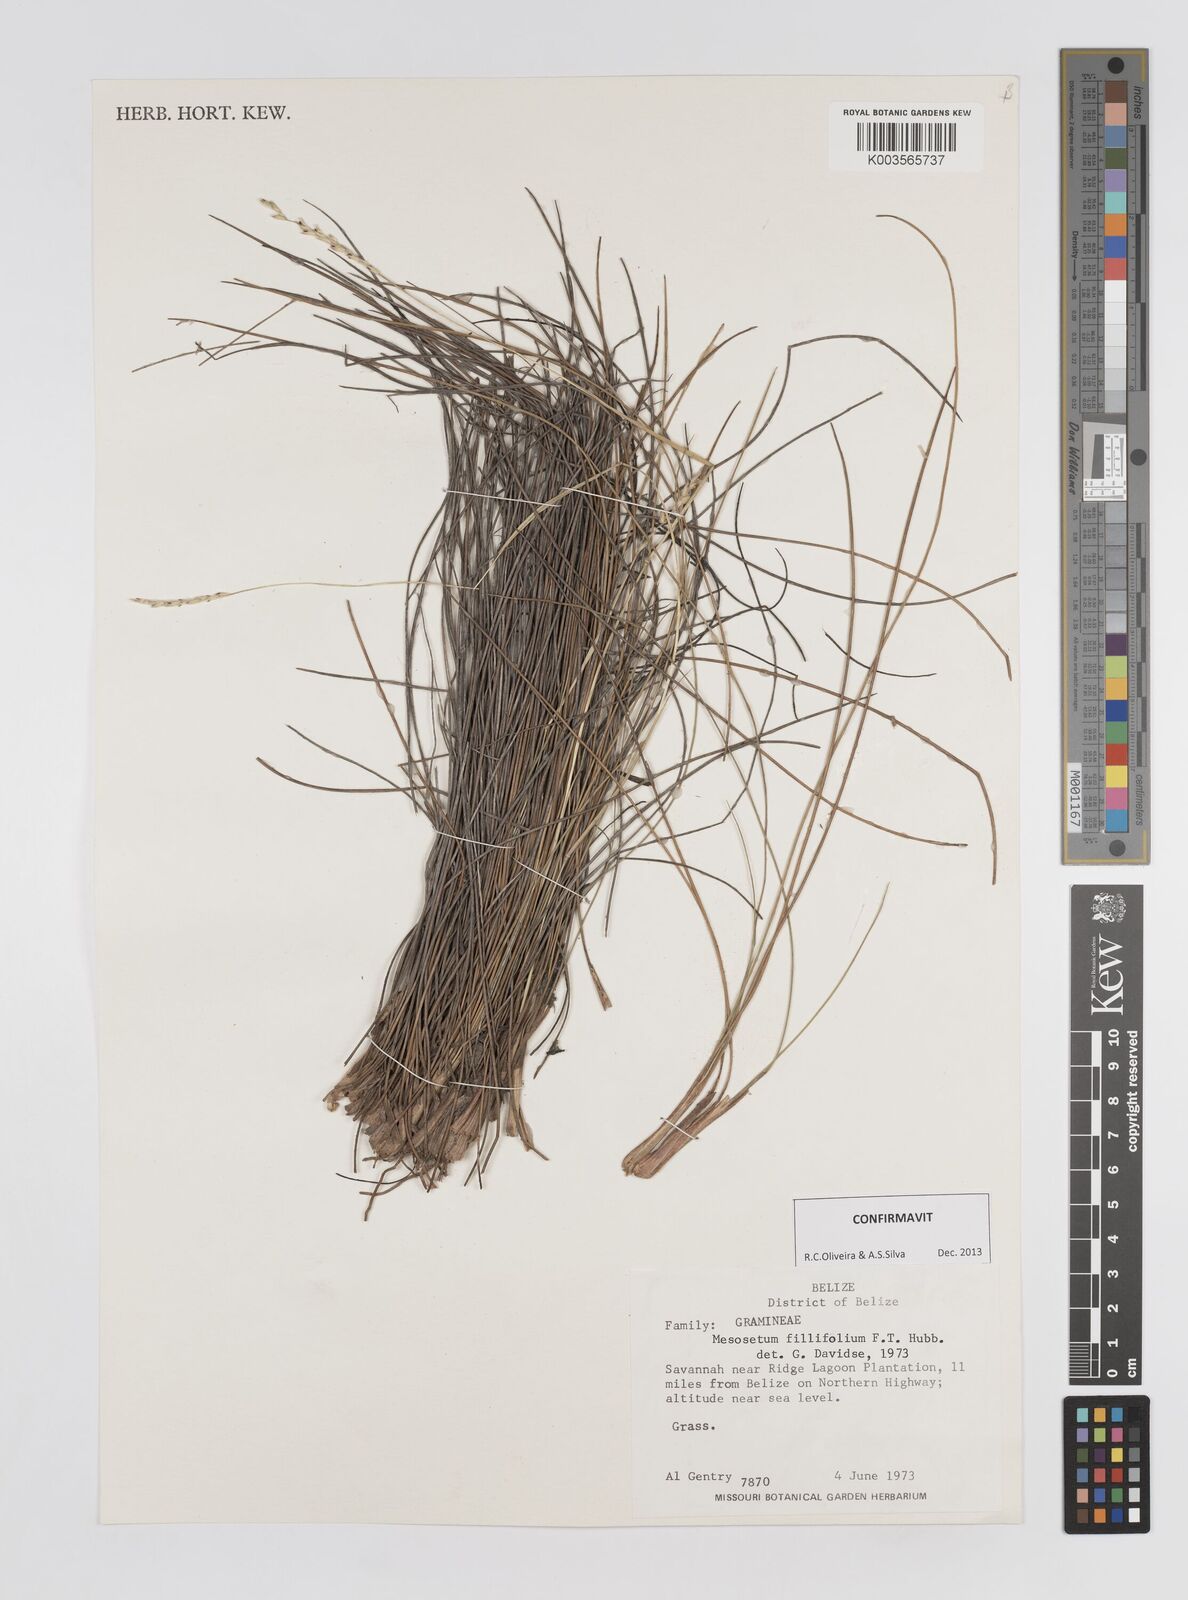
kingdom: Plantae
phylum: Tracheophyta
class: Liliopsida
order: Poales
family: Poaceae
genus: Mesosetum
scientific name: Mesosetum filifolium
